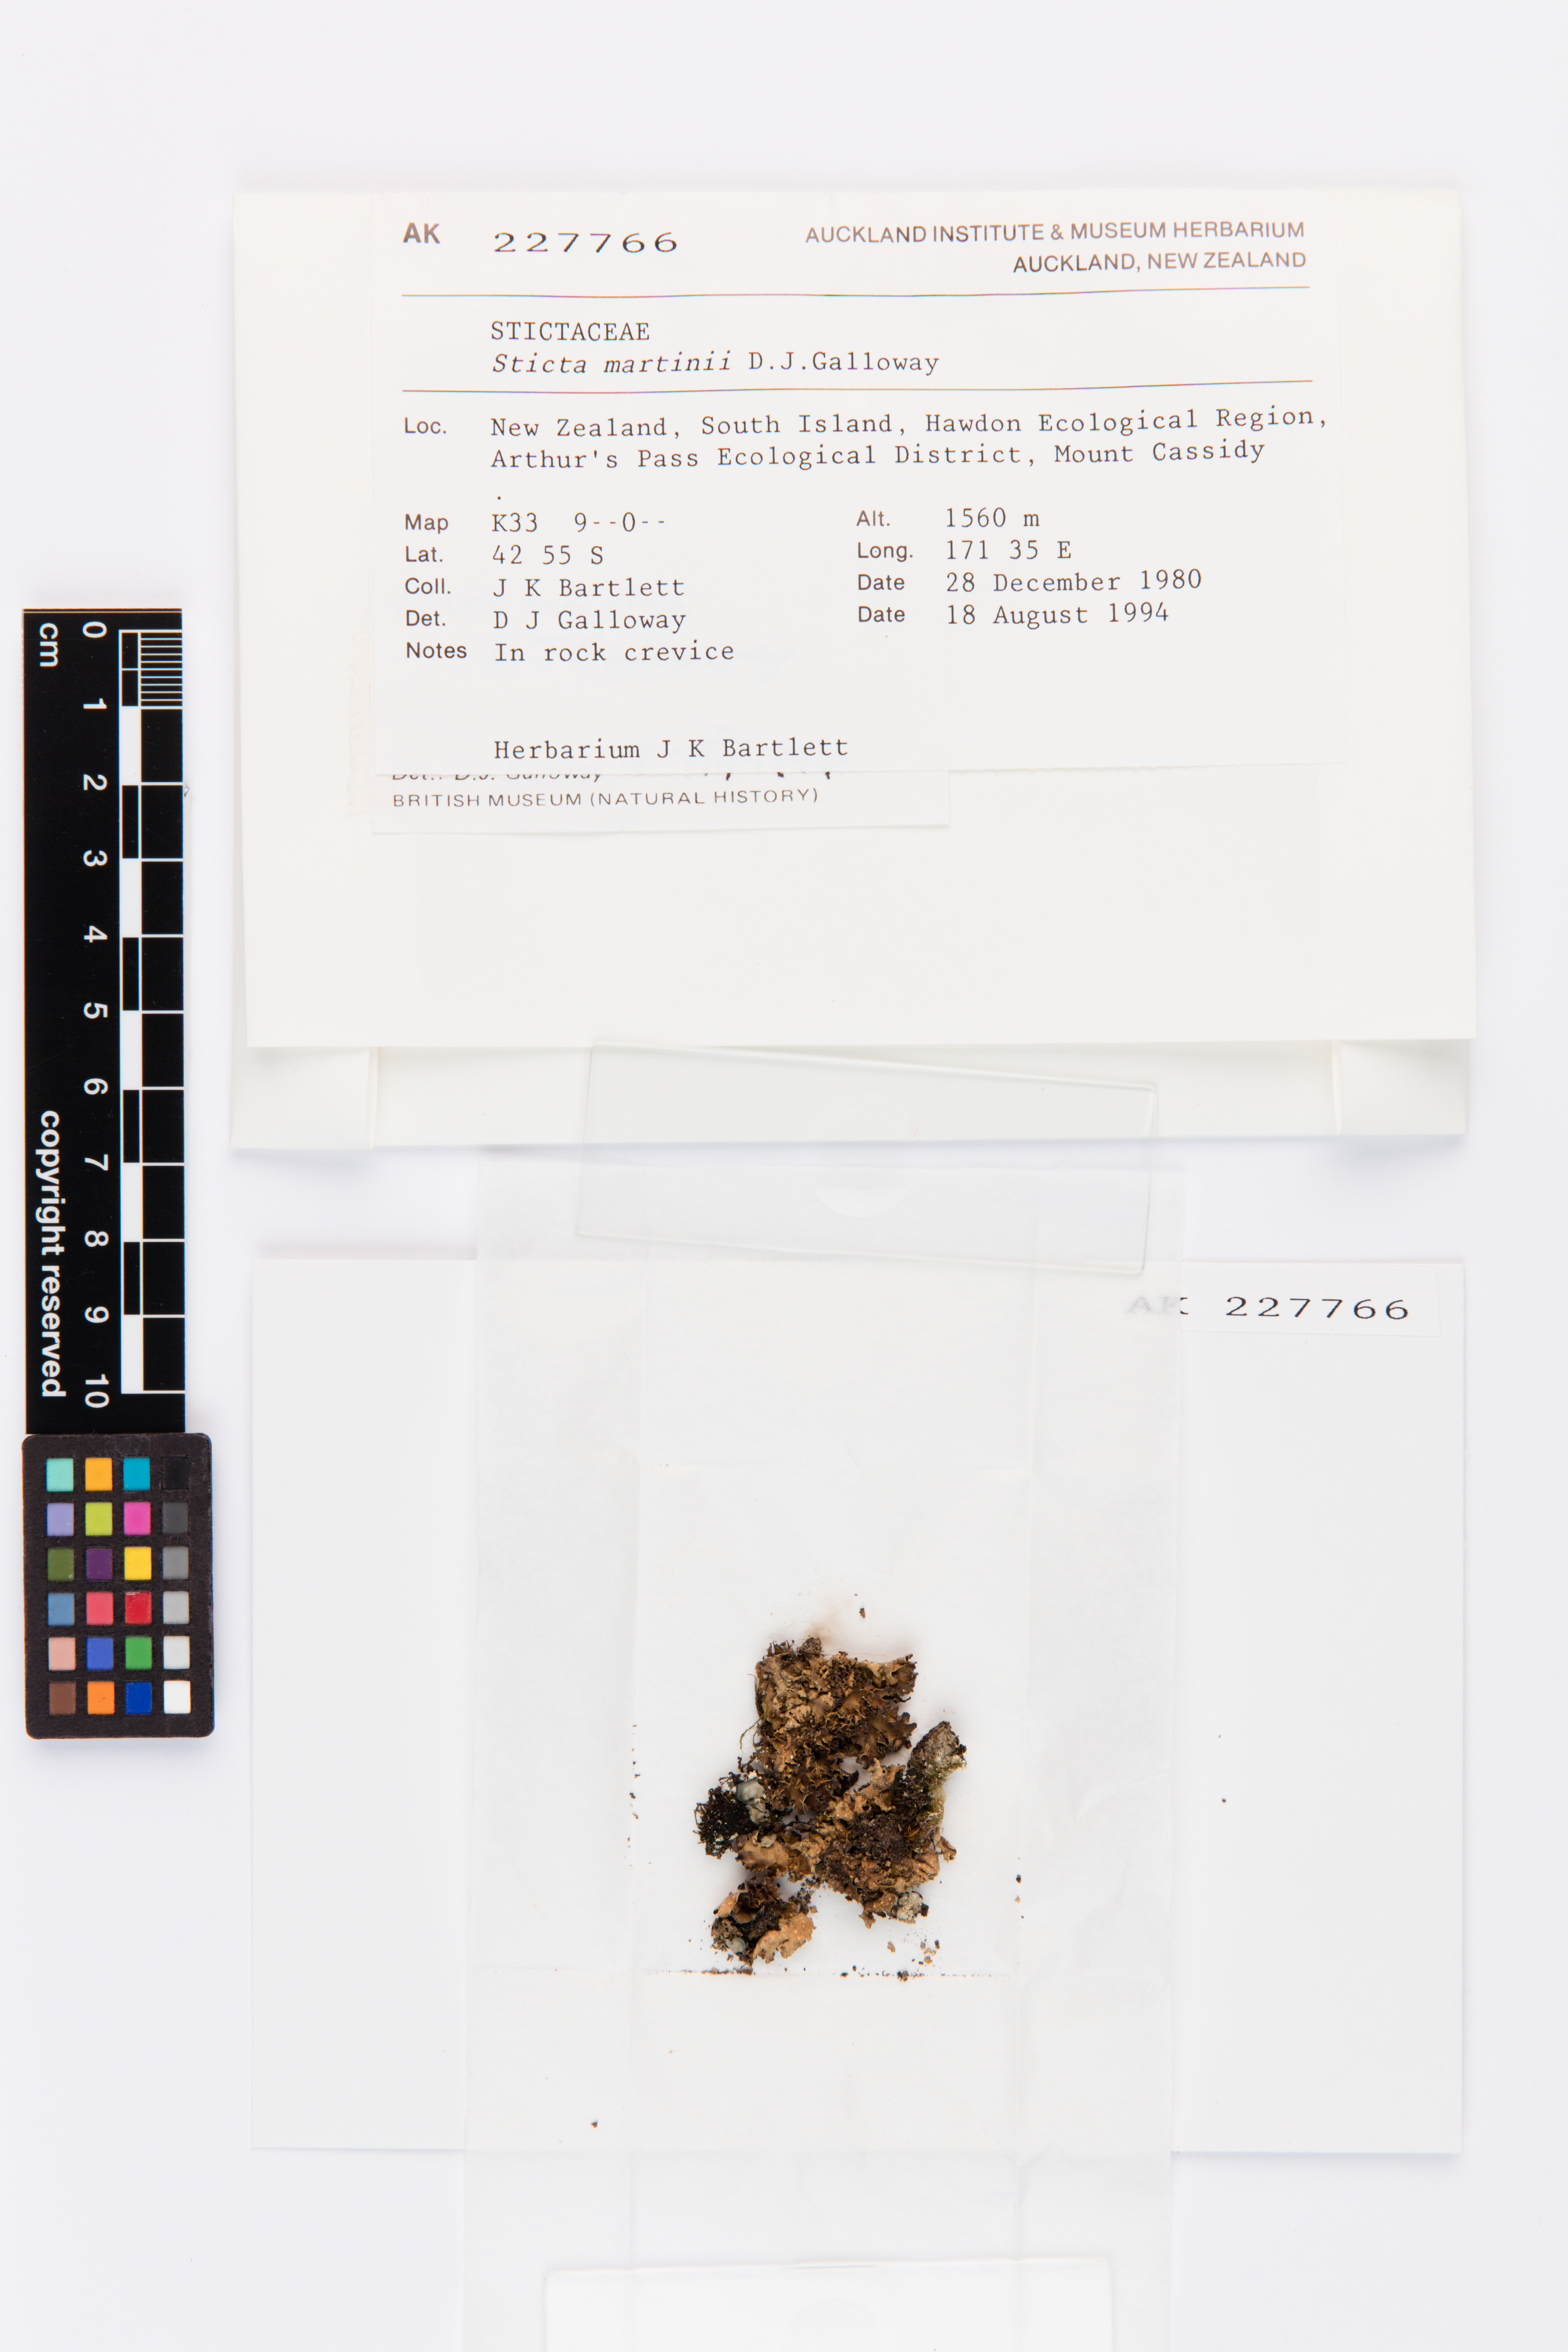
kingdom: Fungi
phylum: Ascomycota
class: Lecanoromycetes
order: Peltigerales
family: Lobariaceae
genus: Sticta
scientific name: Sticta martinii
